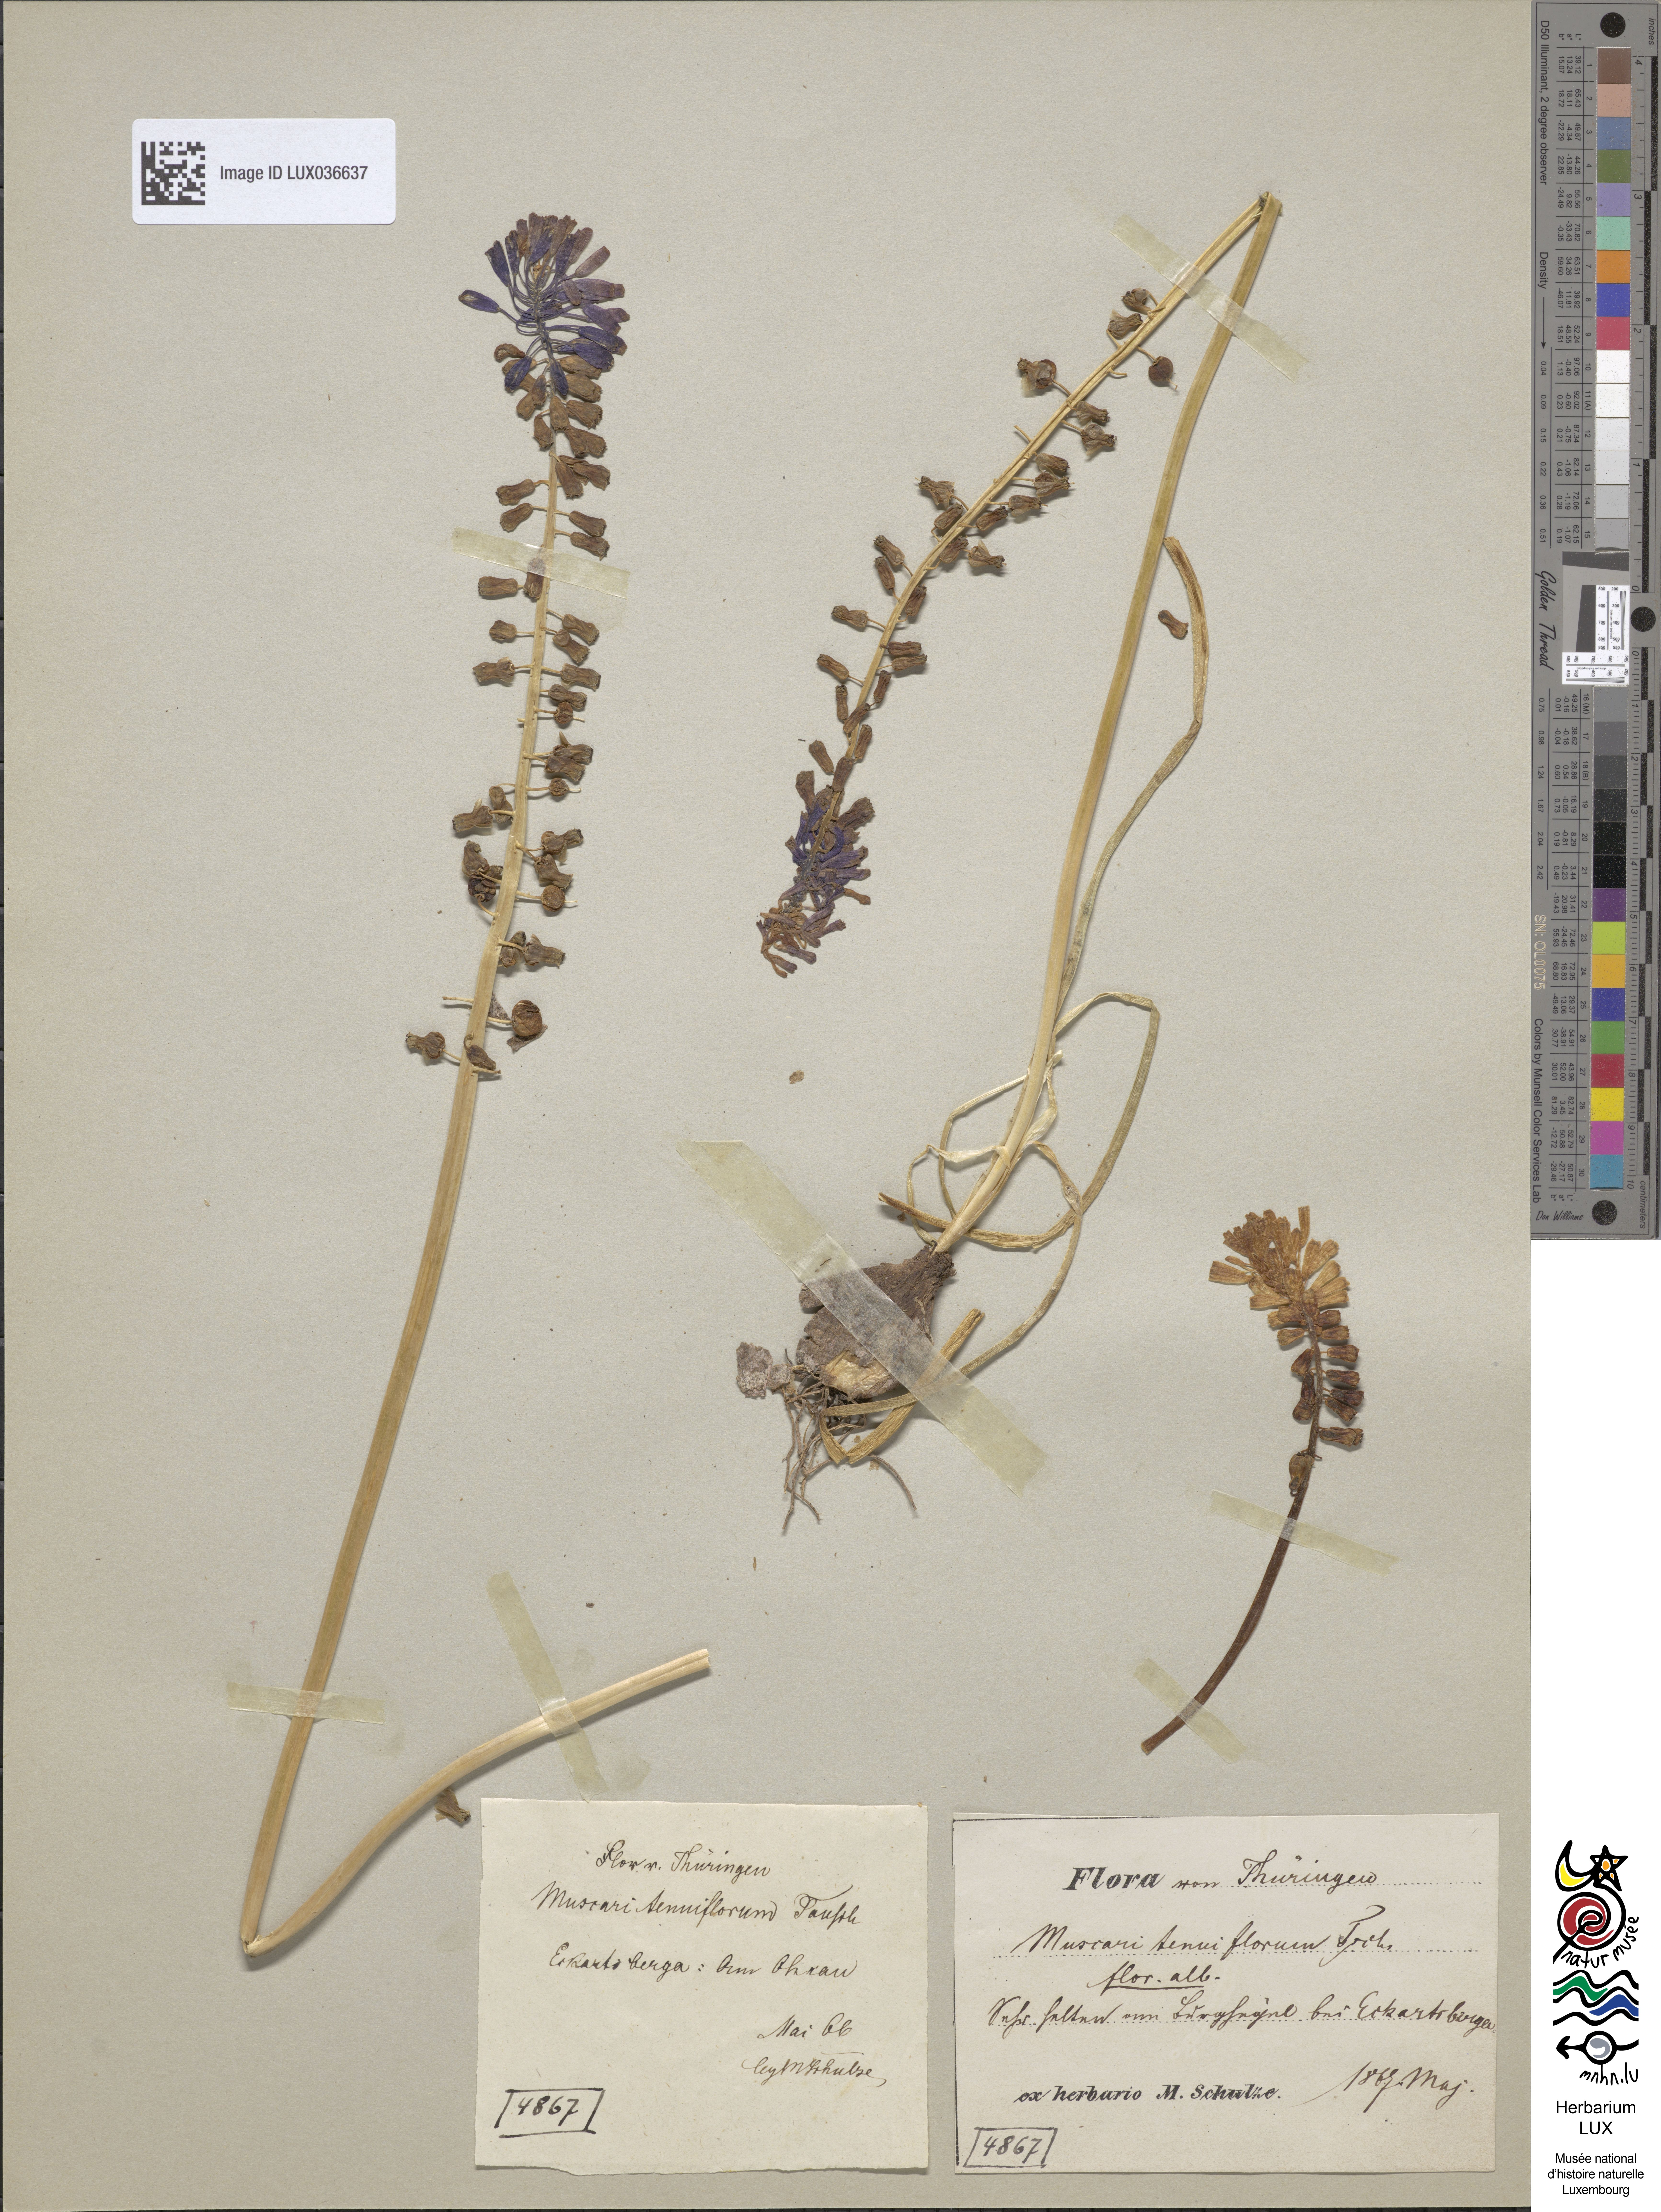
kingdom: Plantae
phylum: Tracheophyta
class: Liliopsida
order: Asparagales
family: Asparagaceae
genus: Muscari
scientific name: Muscari tenuiflorum
